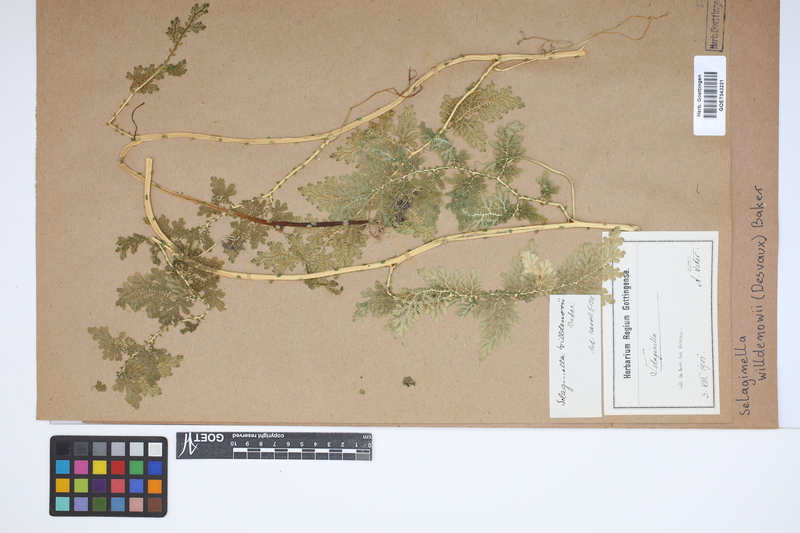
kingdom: Plantae
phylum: Tracheophyta
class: Lycopodiopsida
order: Selaginellales
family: Selaginellaceae
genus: Selaginella
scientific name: Selaginella willdenowii
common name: Willdenow's spikemoss
